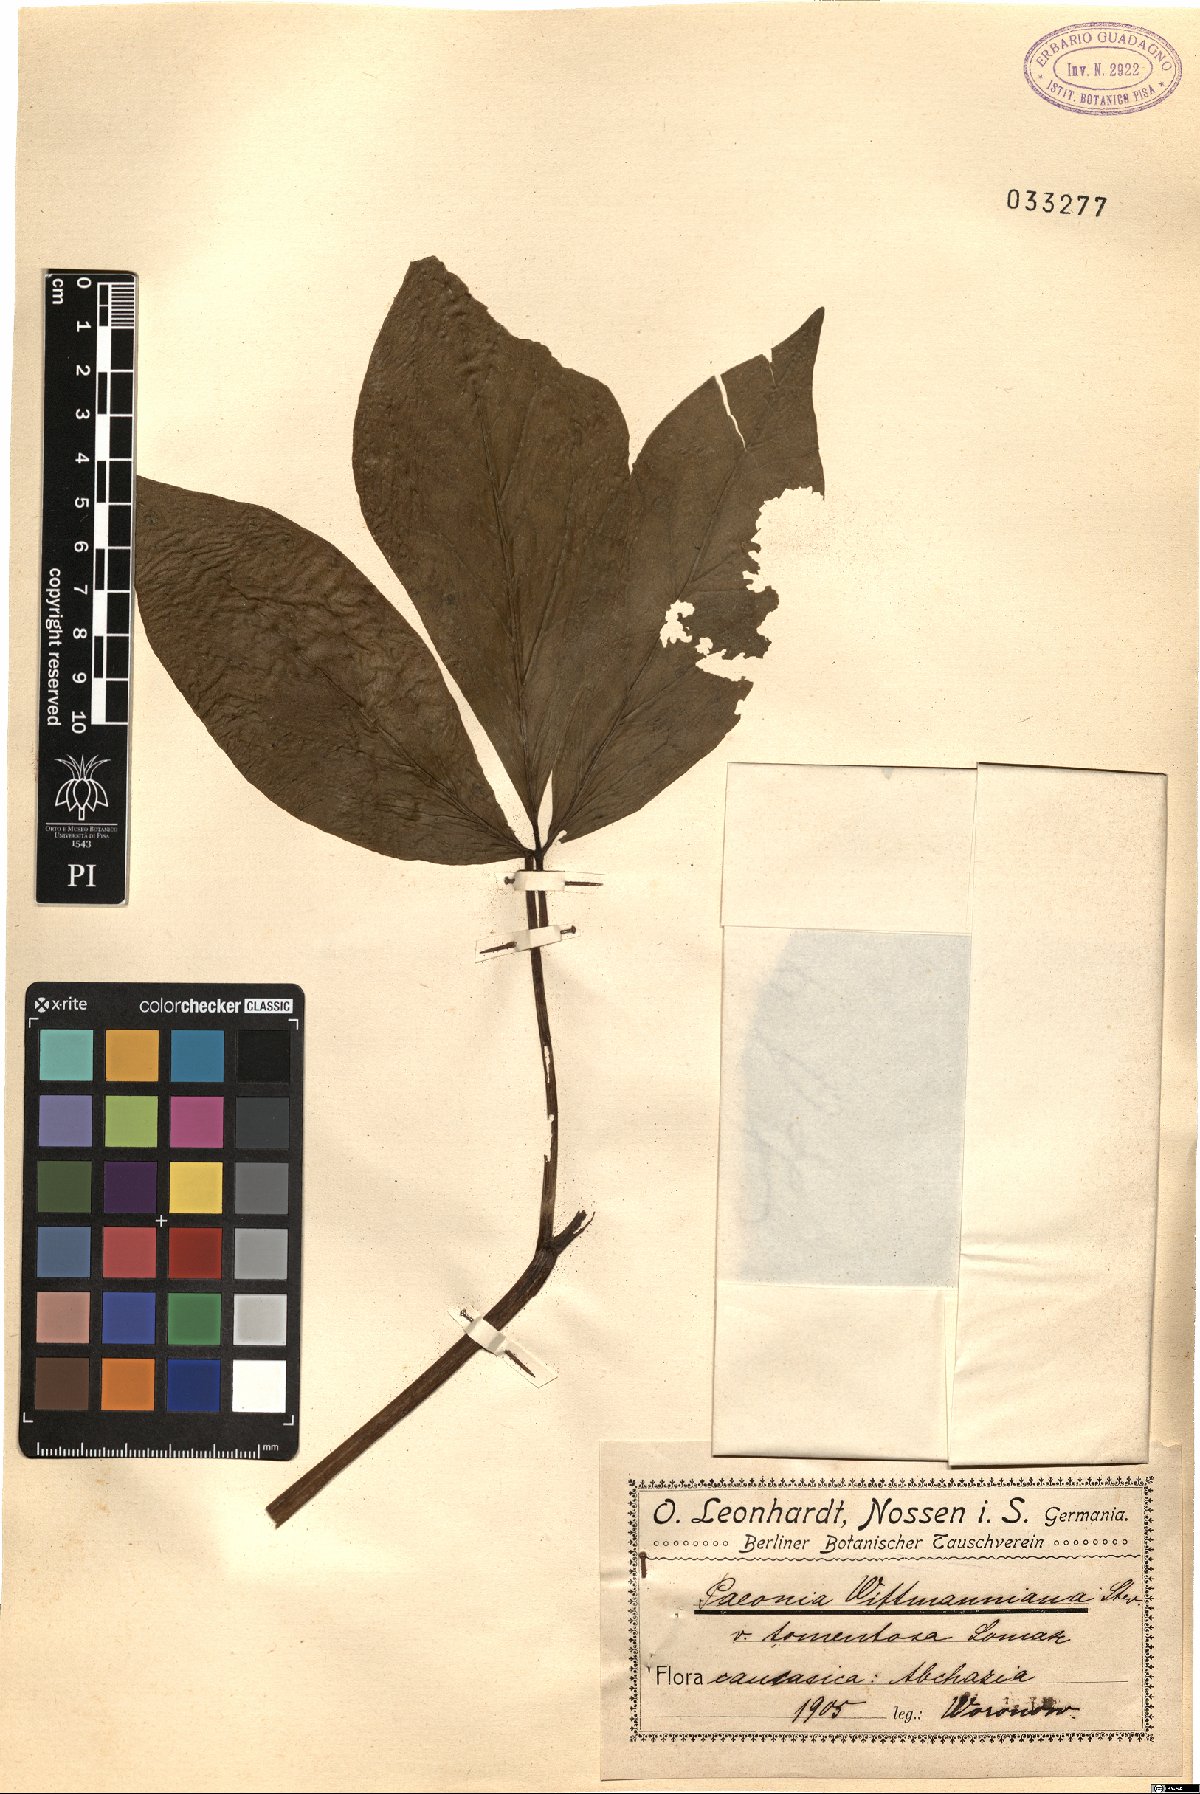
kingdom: Plantae
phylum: Tracheophyta
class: Magnoliopsida
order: Saxifragales
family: Paeoniaceae
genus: Paeonia
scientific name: Paeonia wittmanniana
